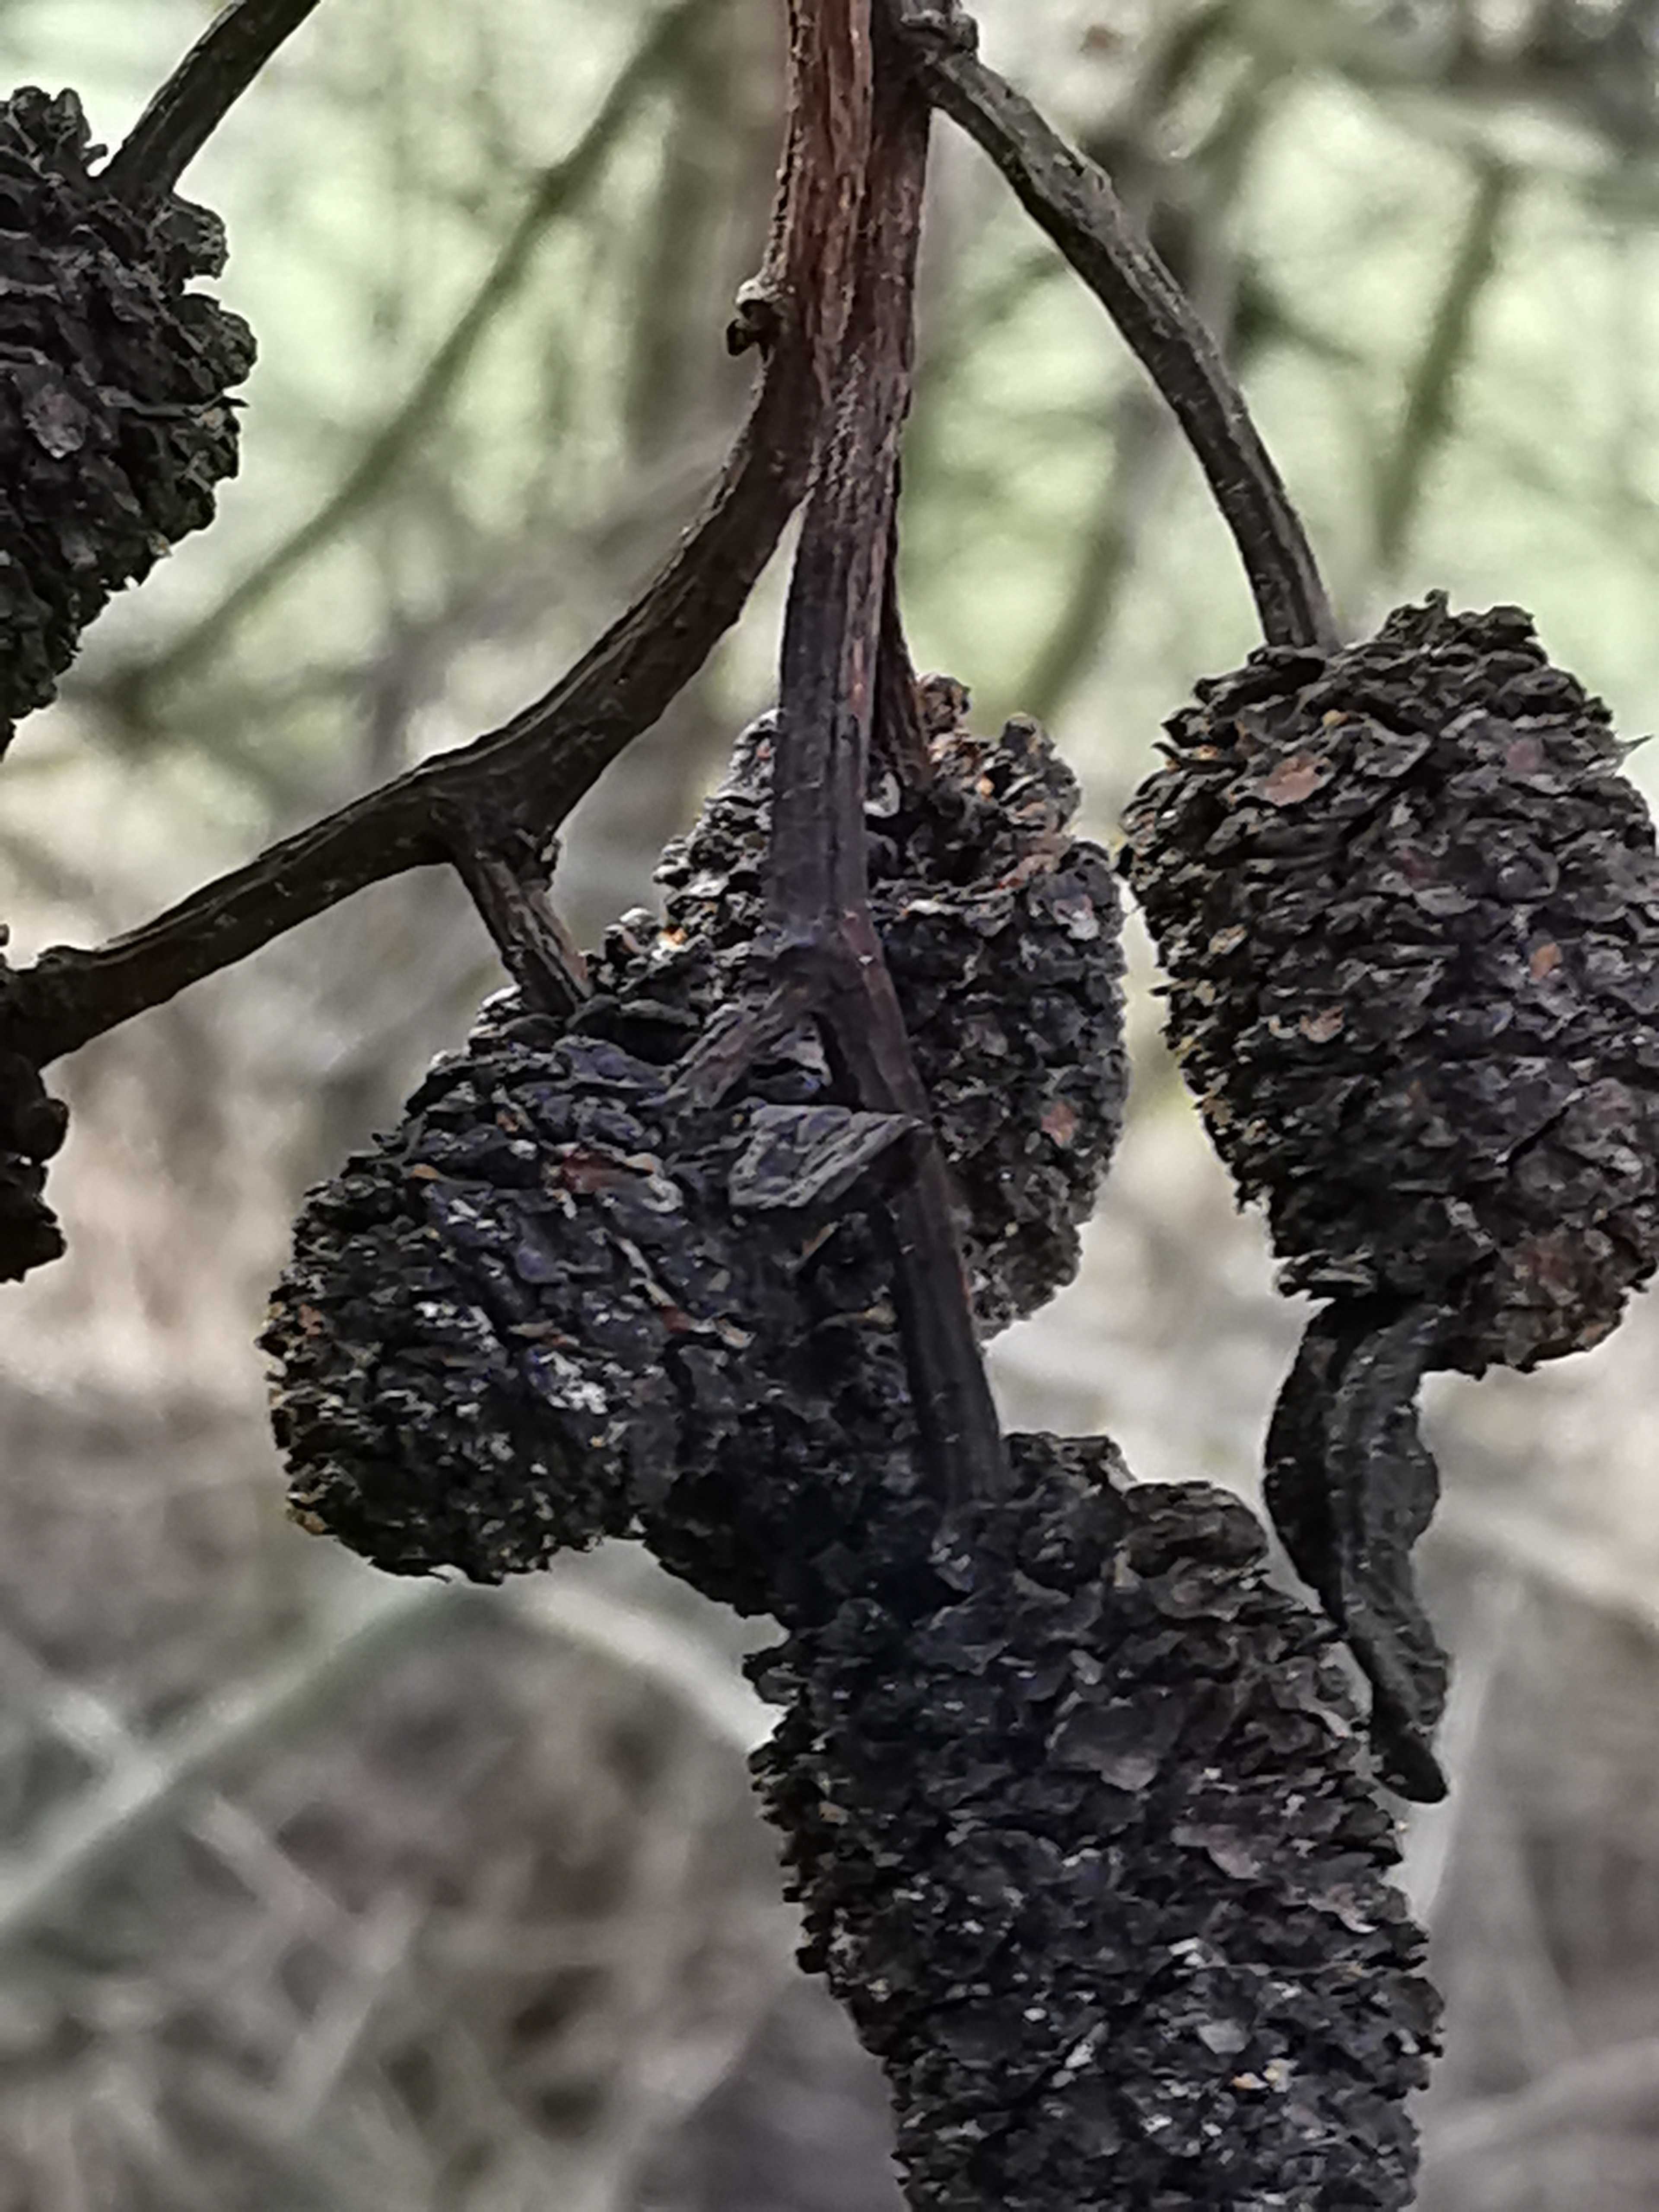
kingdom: Fungi
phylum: Ascomycota
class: Taphrinomycetes
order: Taphrinales
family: Taphrinaceae
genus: Taphrina
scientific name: Taphrina alni
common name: Alder tongue
